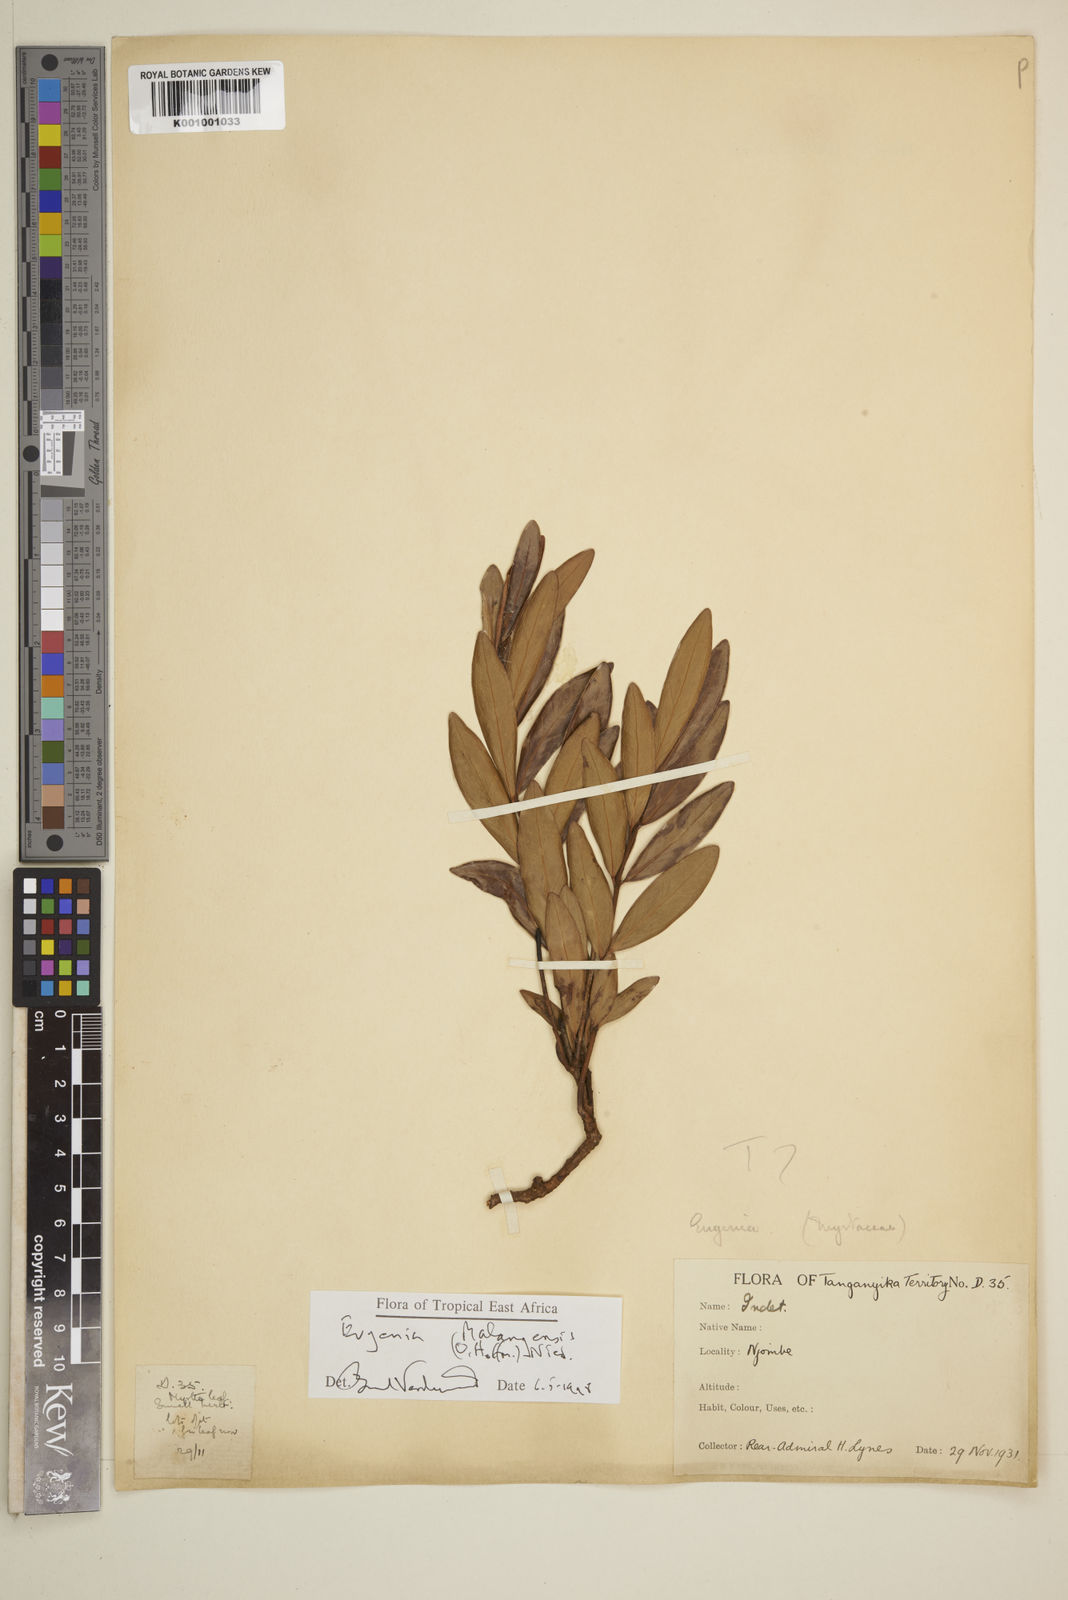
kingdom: Plantae
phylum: Tracheophyta
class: Magnoliopsida
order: Myrtales
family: Myrtaceae
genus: Eugenia
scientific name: Eugenia malangensis
